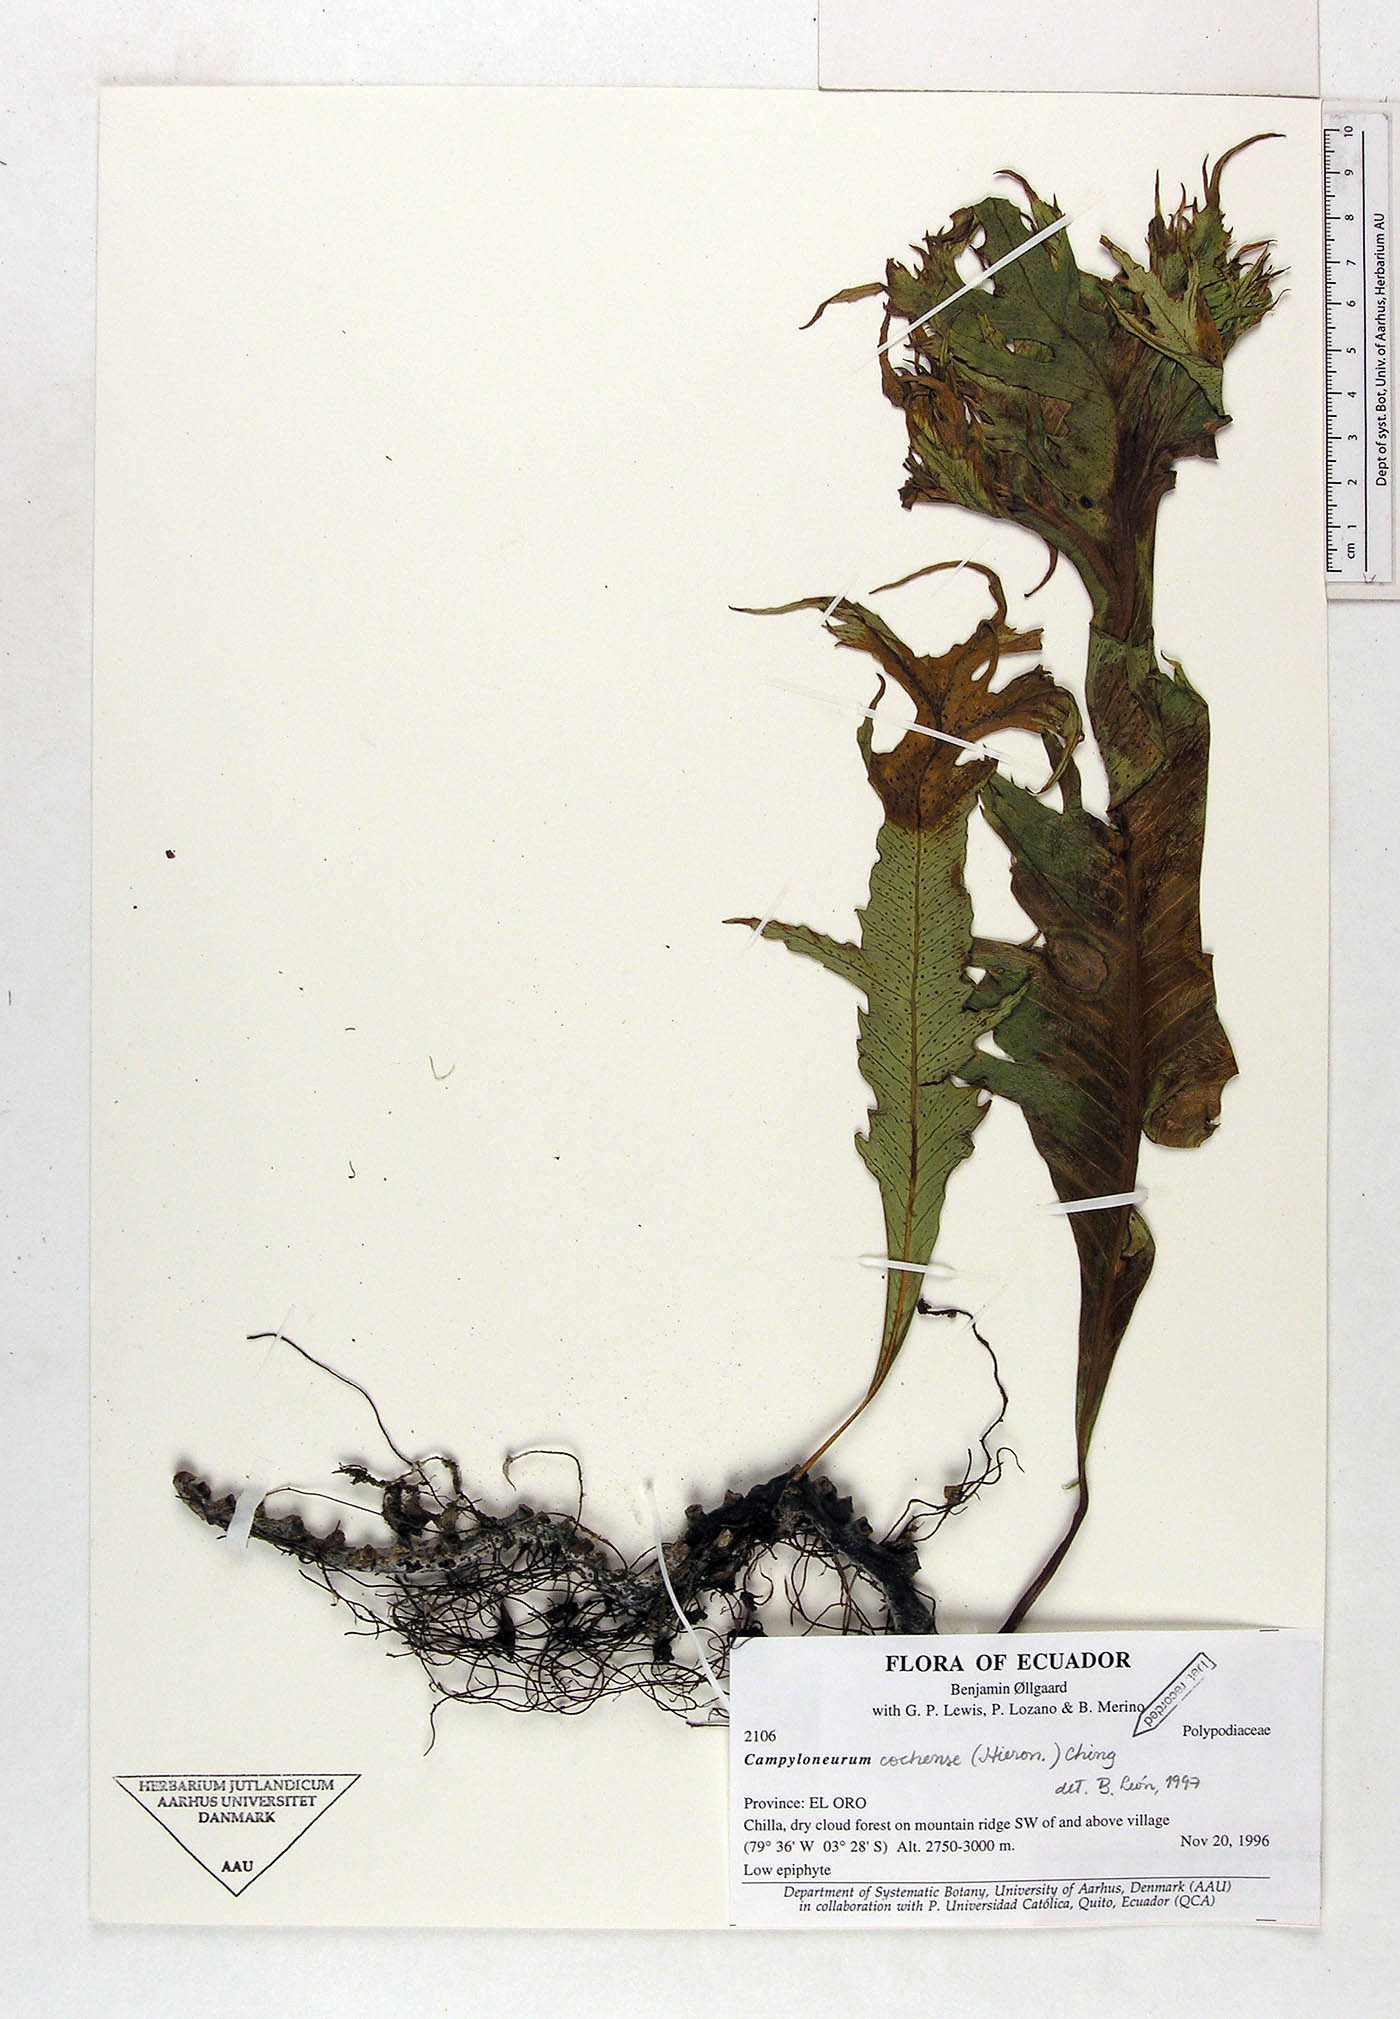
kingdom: Plantae
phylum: Tracheophyta
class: Polypodiopsida
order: Polypodiales
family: Polypodiaceae
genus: Campyloneurum
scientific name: Campyloneurum cochense
